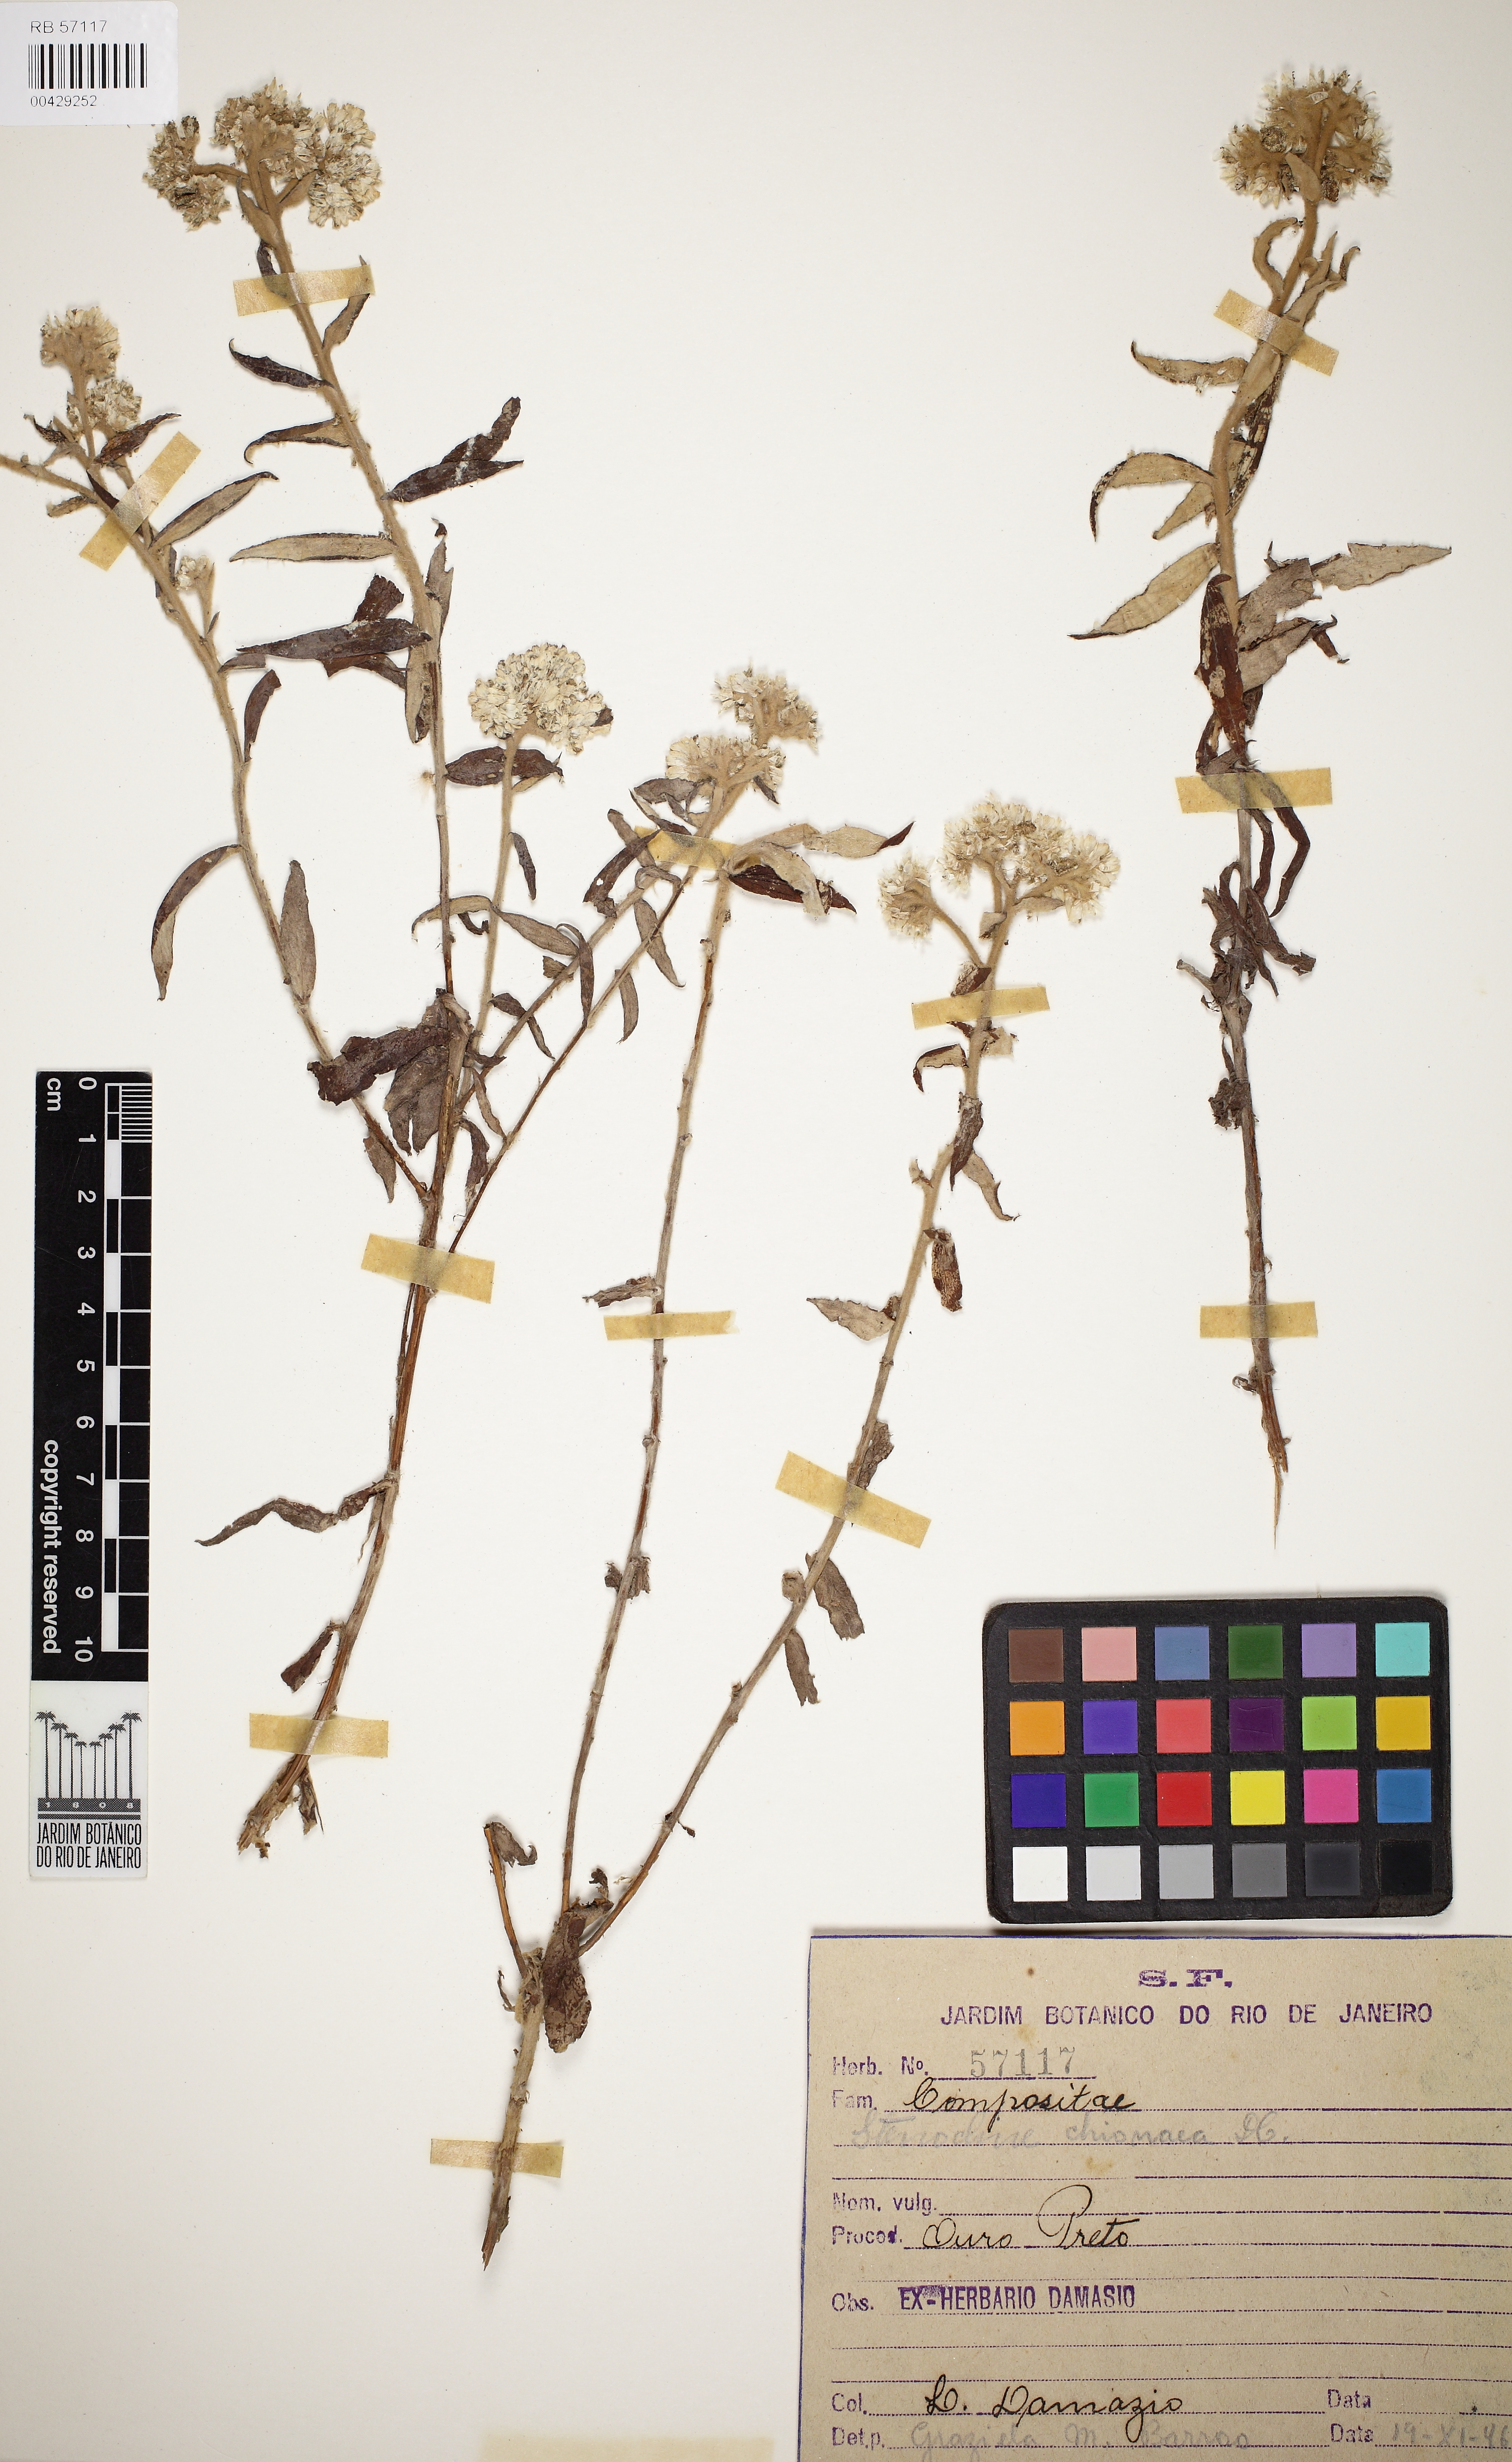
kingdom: Plantae
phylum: Tracheophyta
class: Magnoliopsida
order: Asterales
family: Asteraceae
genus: Achyrocline
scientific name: Achyrocline chionaea
